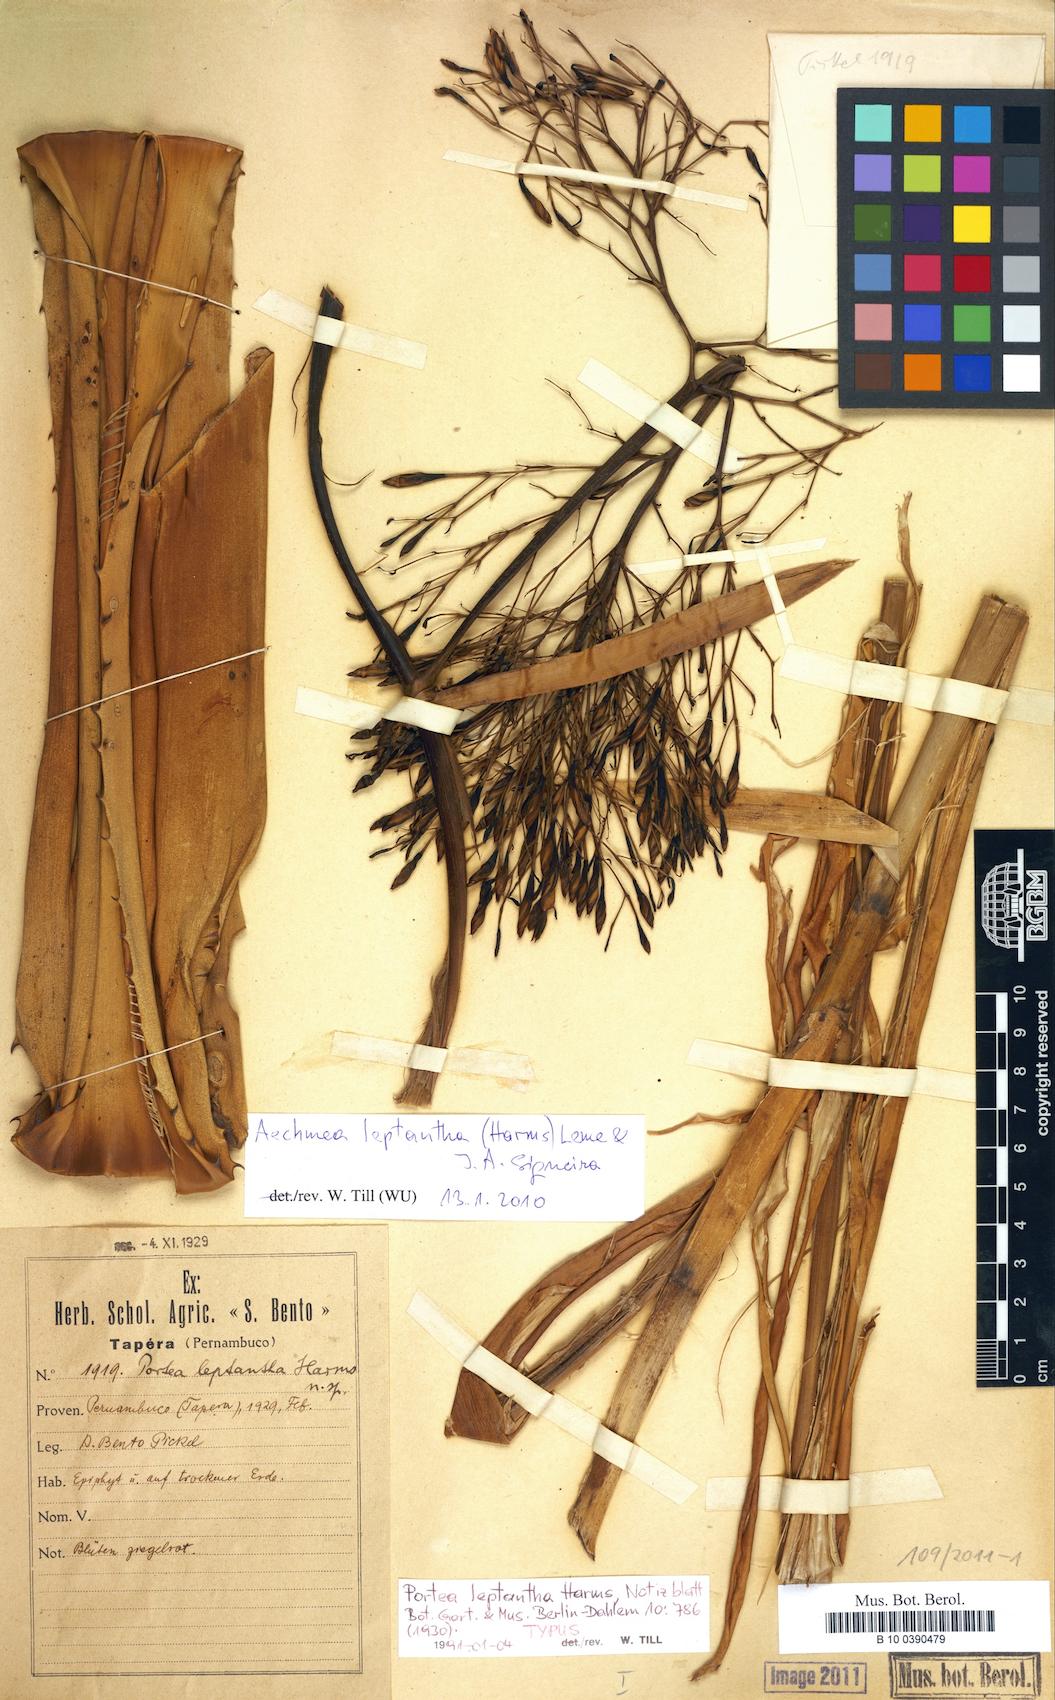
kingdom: Plantae
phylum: Tracheophyta
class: Liliopsida
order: Poales
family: Bromeliaceae
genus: Aechmea
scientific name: Aechmea leptantha
